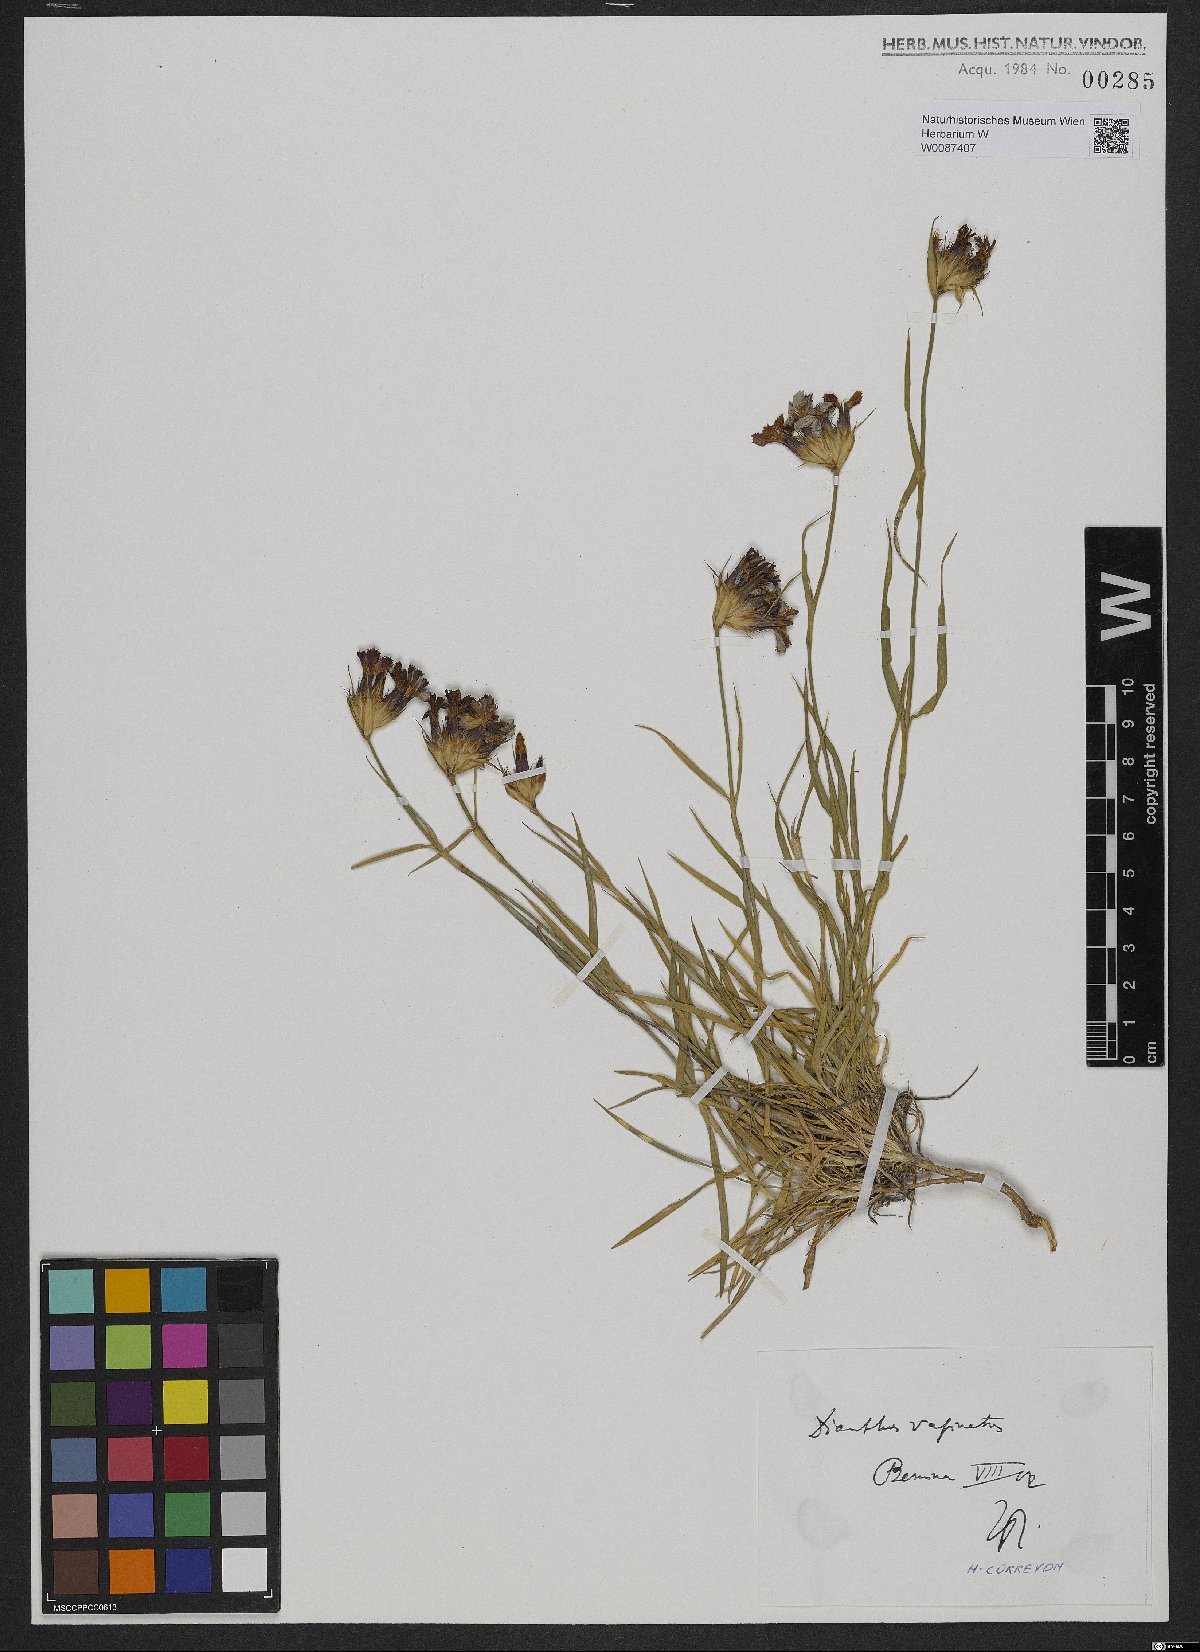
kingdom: Plantae
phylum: Tracheophyta
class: Magnoliopsida
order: Caryophyllales
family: Caryophyllaceae
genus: Dianthus
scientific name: Dianthus carthusianorum
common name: Carthusian pink
